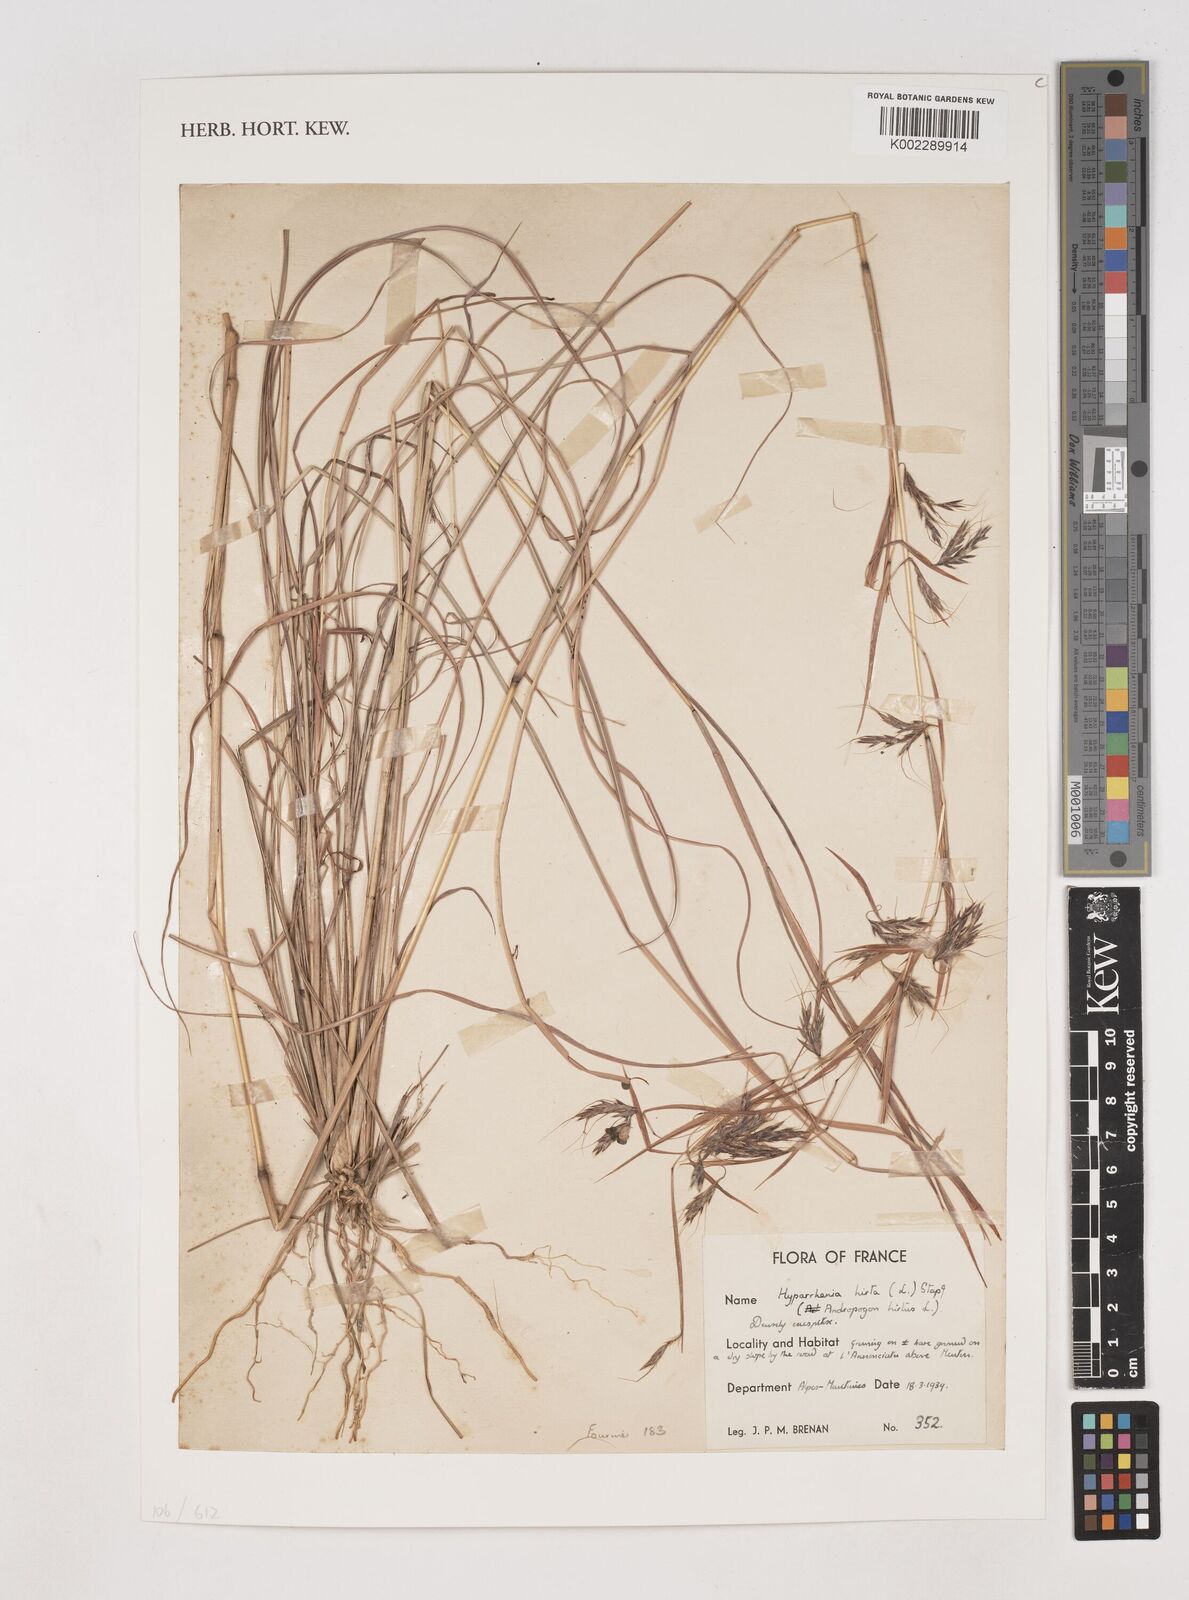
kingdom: Plantae
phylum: Tracheophyta
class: Liliopsida
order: Poales
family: Poaceae
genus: Hyparrhenia
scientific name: Hyparrhenia hirta
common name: Thatching grass
